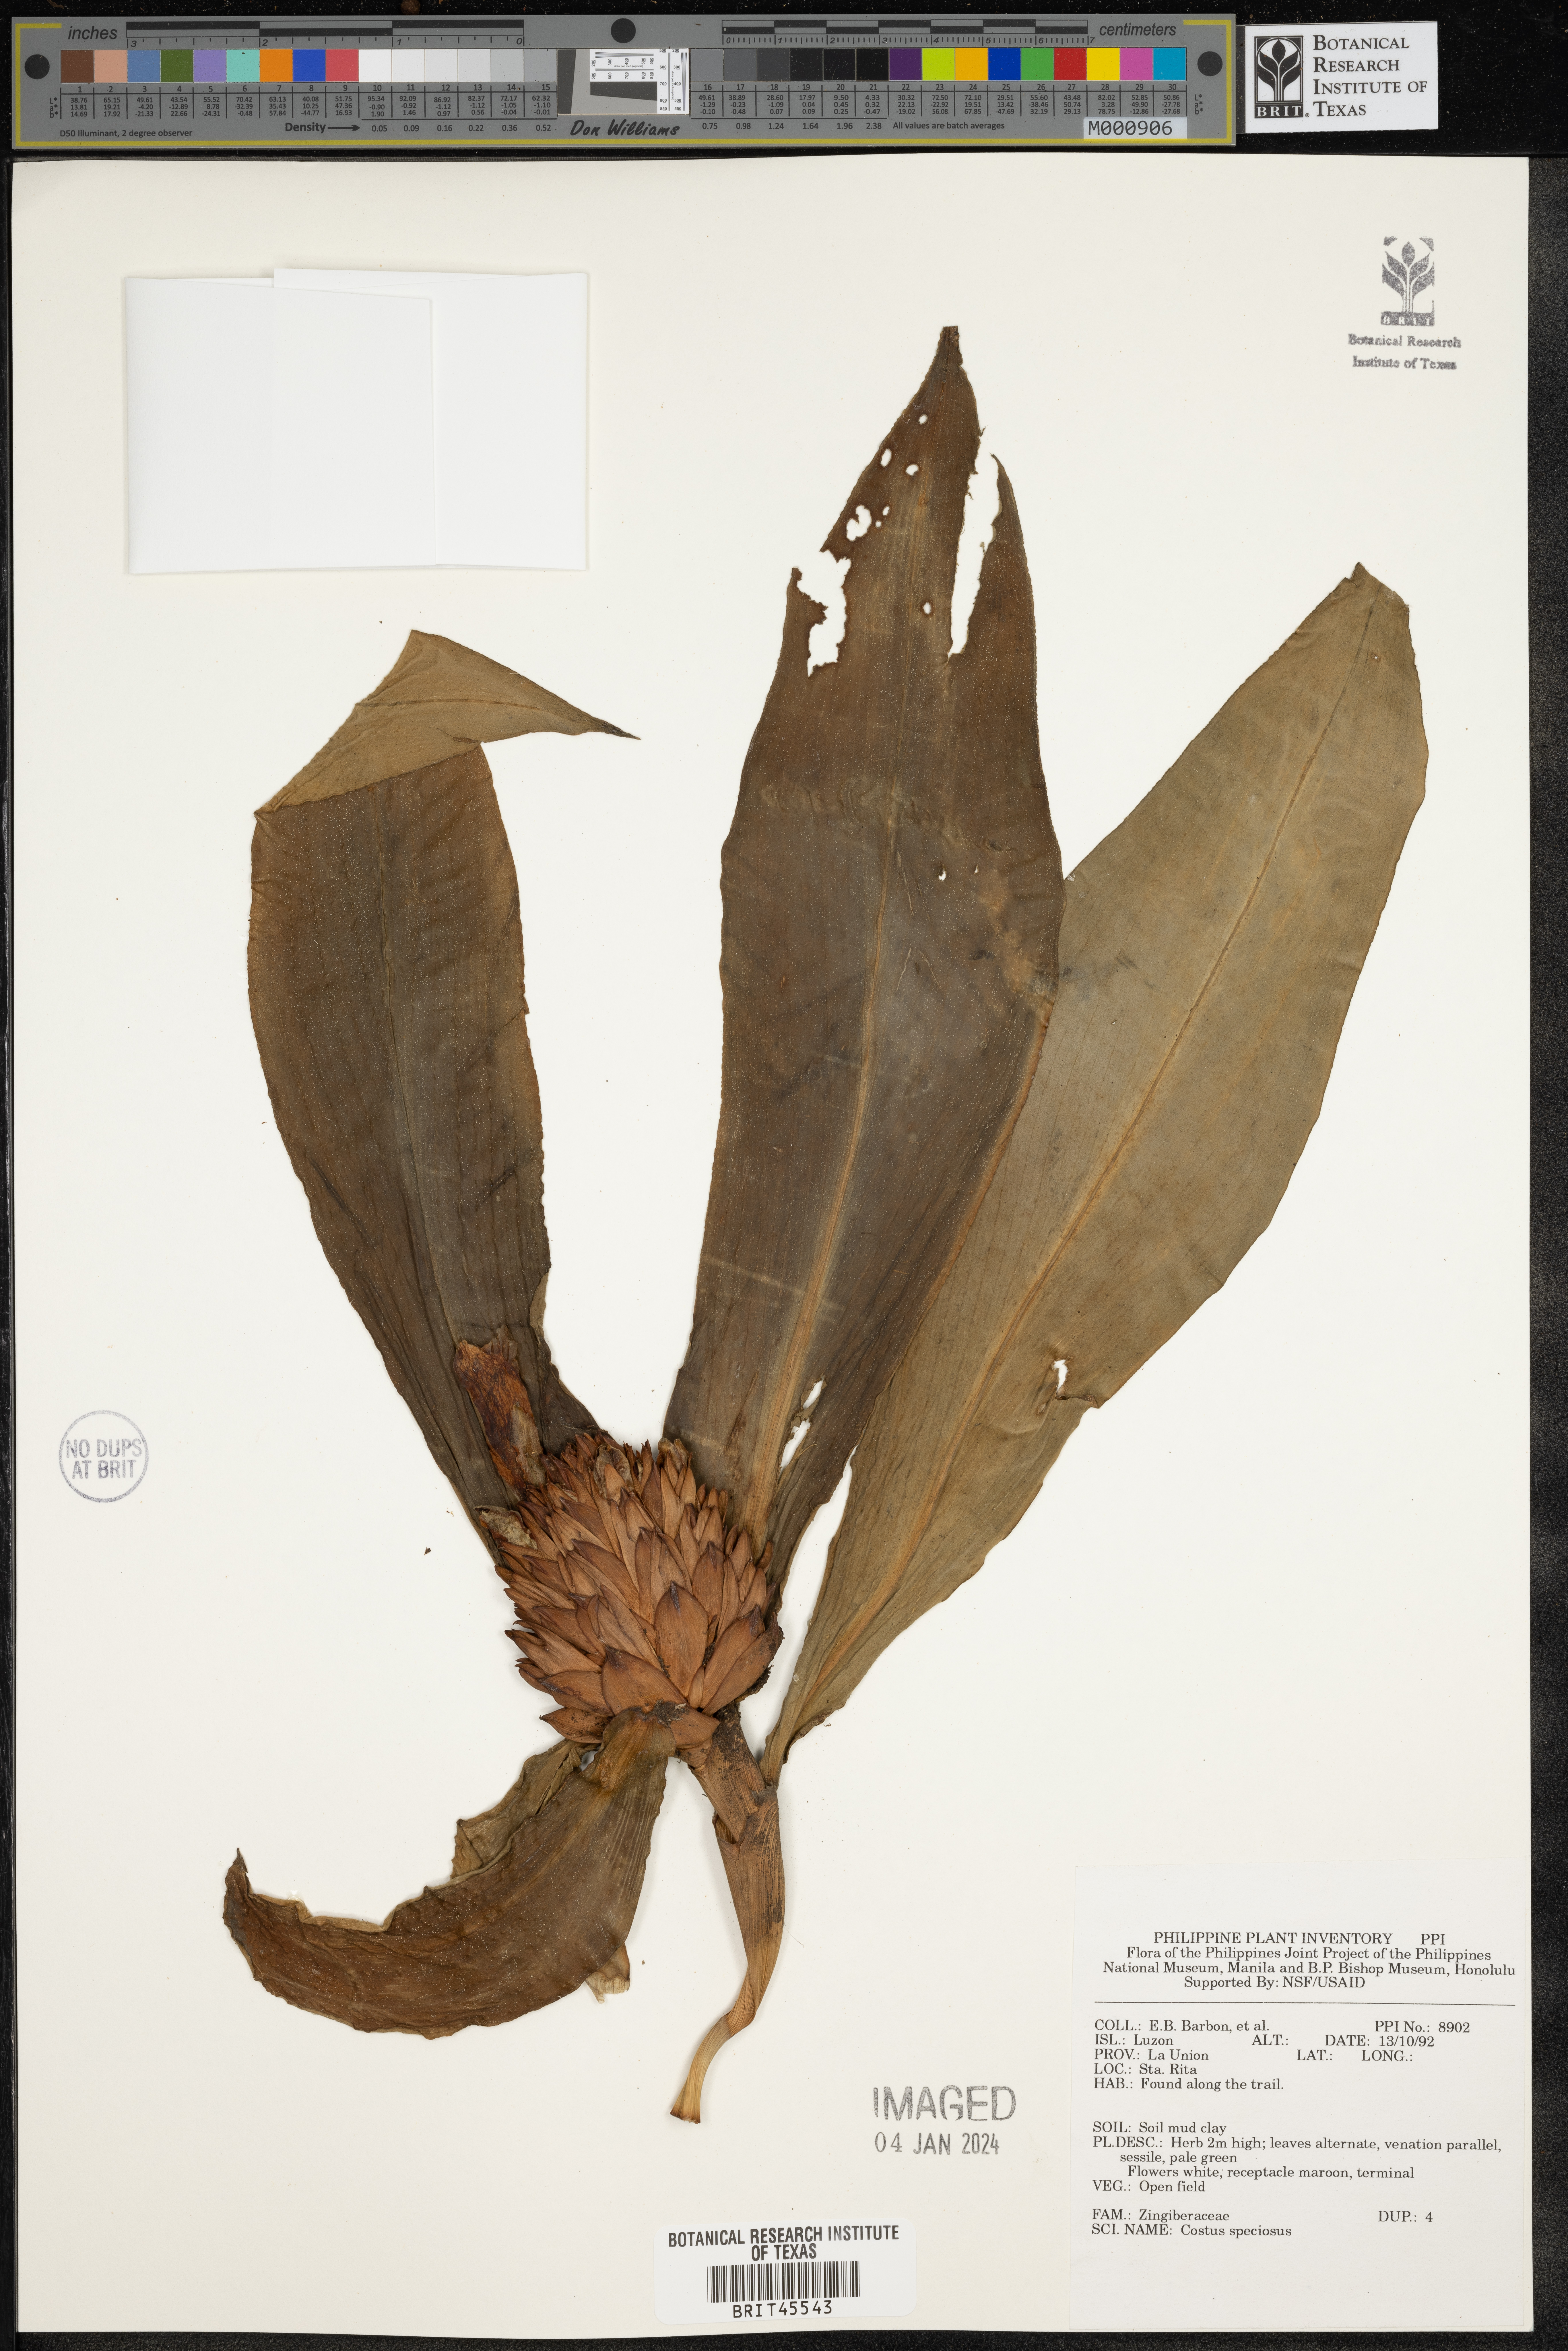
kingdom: Plantae
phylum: Tracheophyta
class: Liliopsida
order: Zingiberales
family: Costaceae
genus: Hellenia
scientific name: Hellenia speciosa
